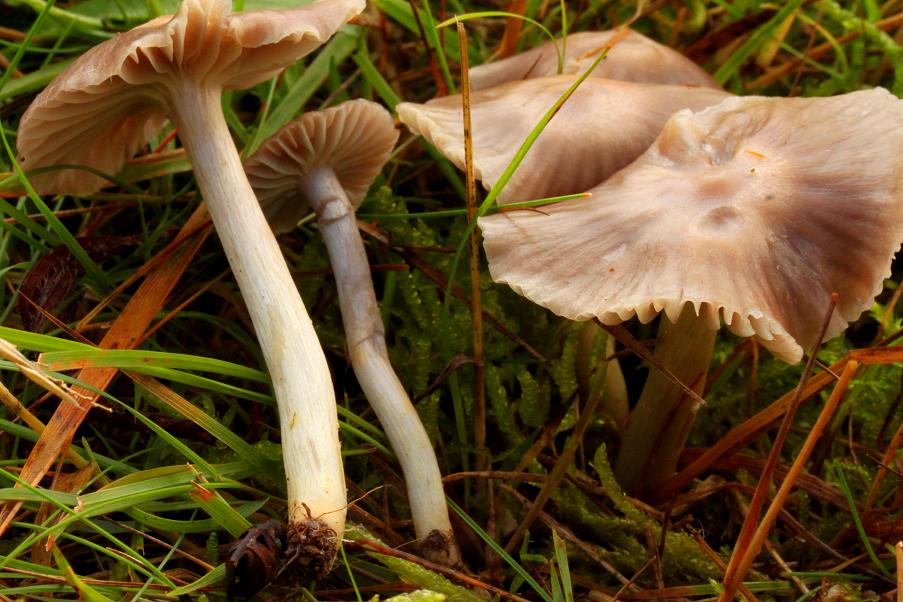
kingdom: Fungi
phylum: Basidiomycota
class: Agaricomycetes
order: Agaricales
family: Hygrophoraceae
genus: Cuphophyllus
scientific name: Cuphophyllus flavipes
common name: gulfodet vokshat
